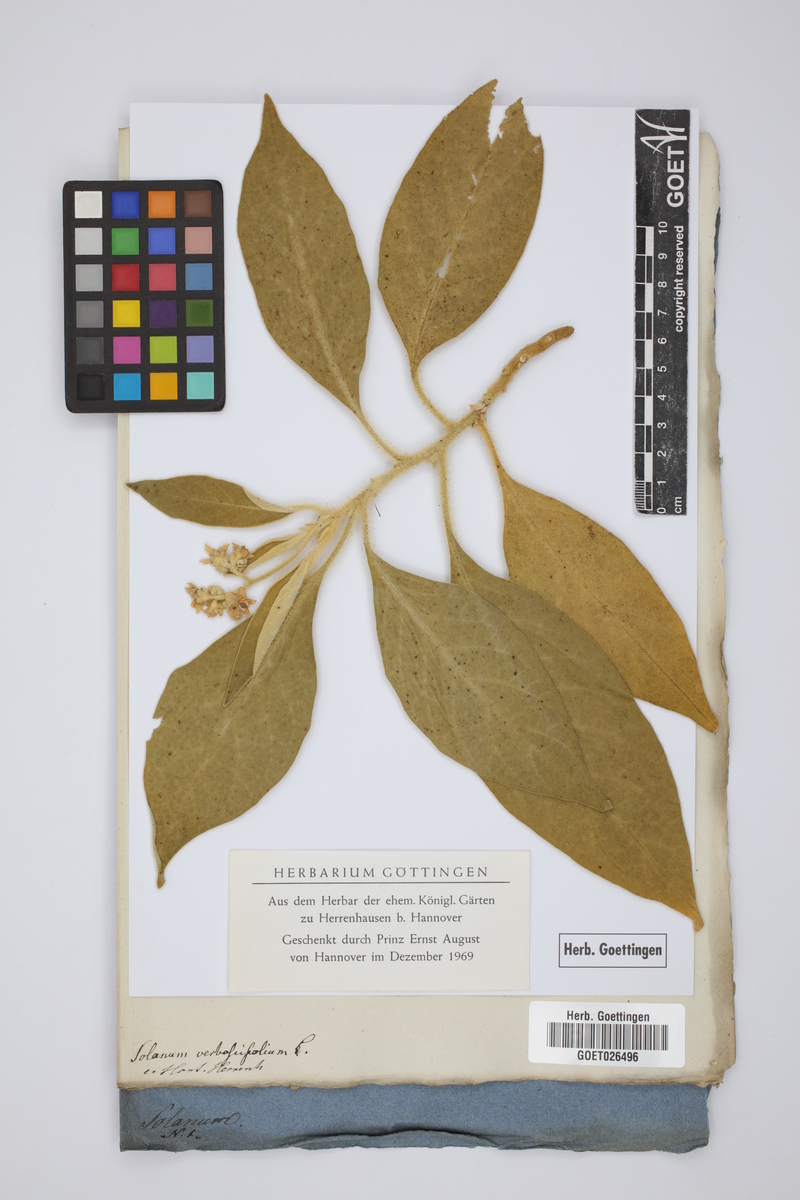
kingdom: Plantae
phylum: Tracheophyta
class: Magnoliopsida
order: Solanales
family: Solanaceae
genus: Solanum
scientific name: Solanum donianum
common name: Mullein nightshade
